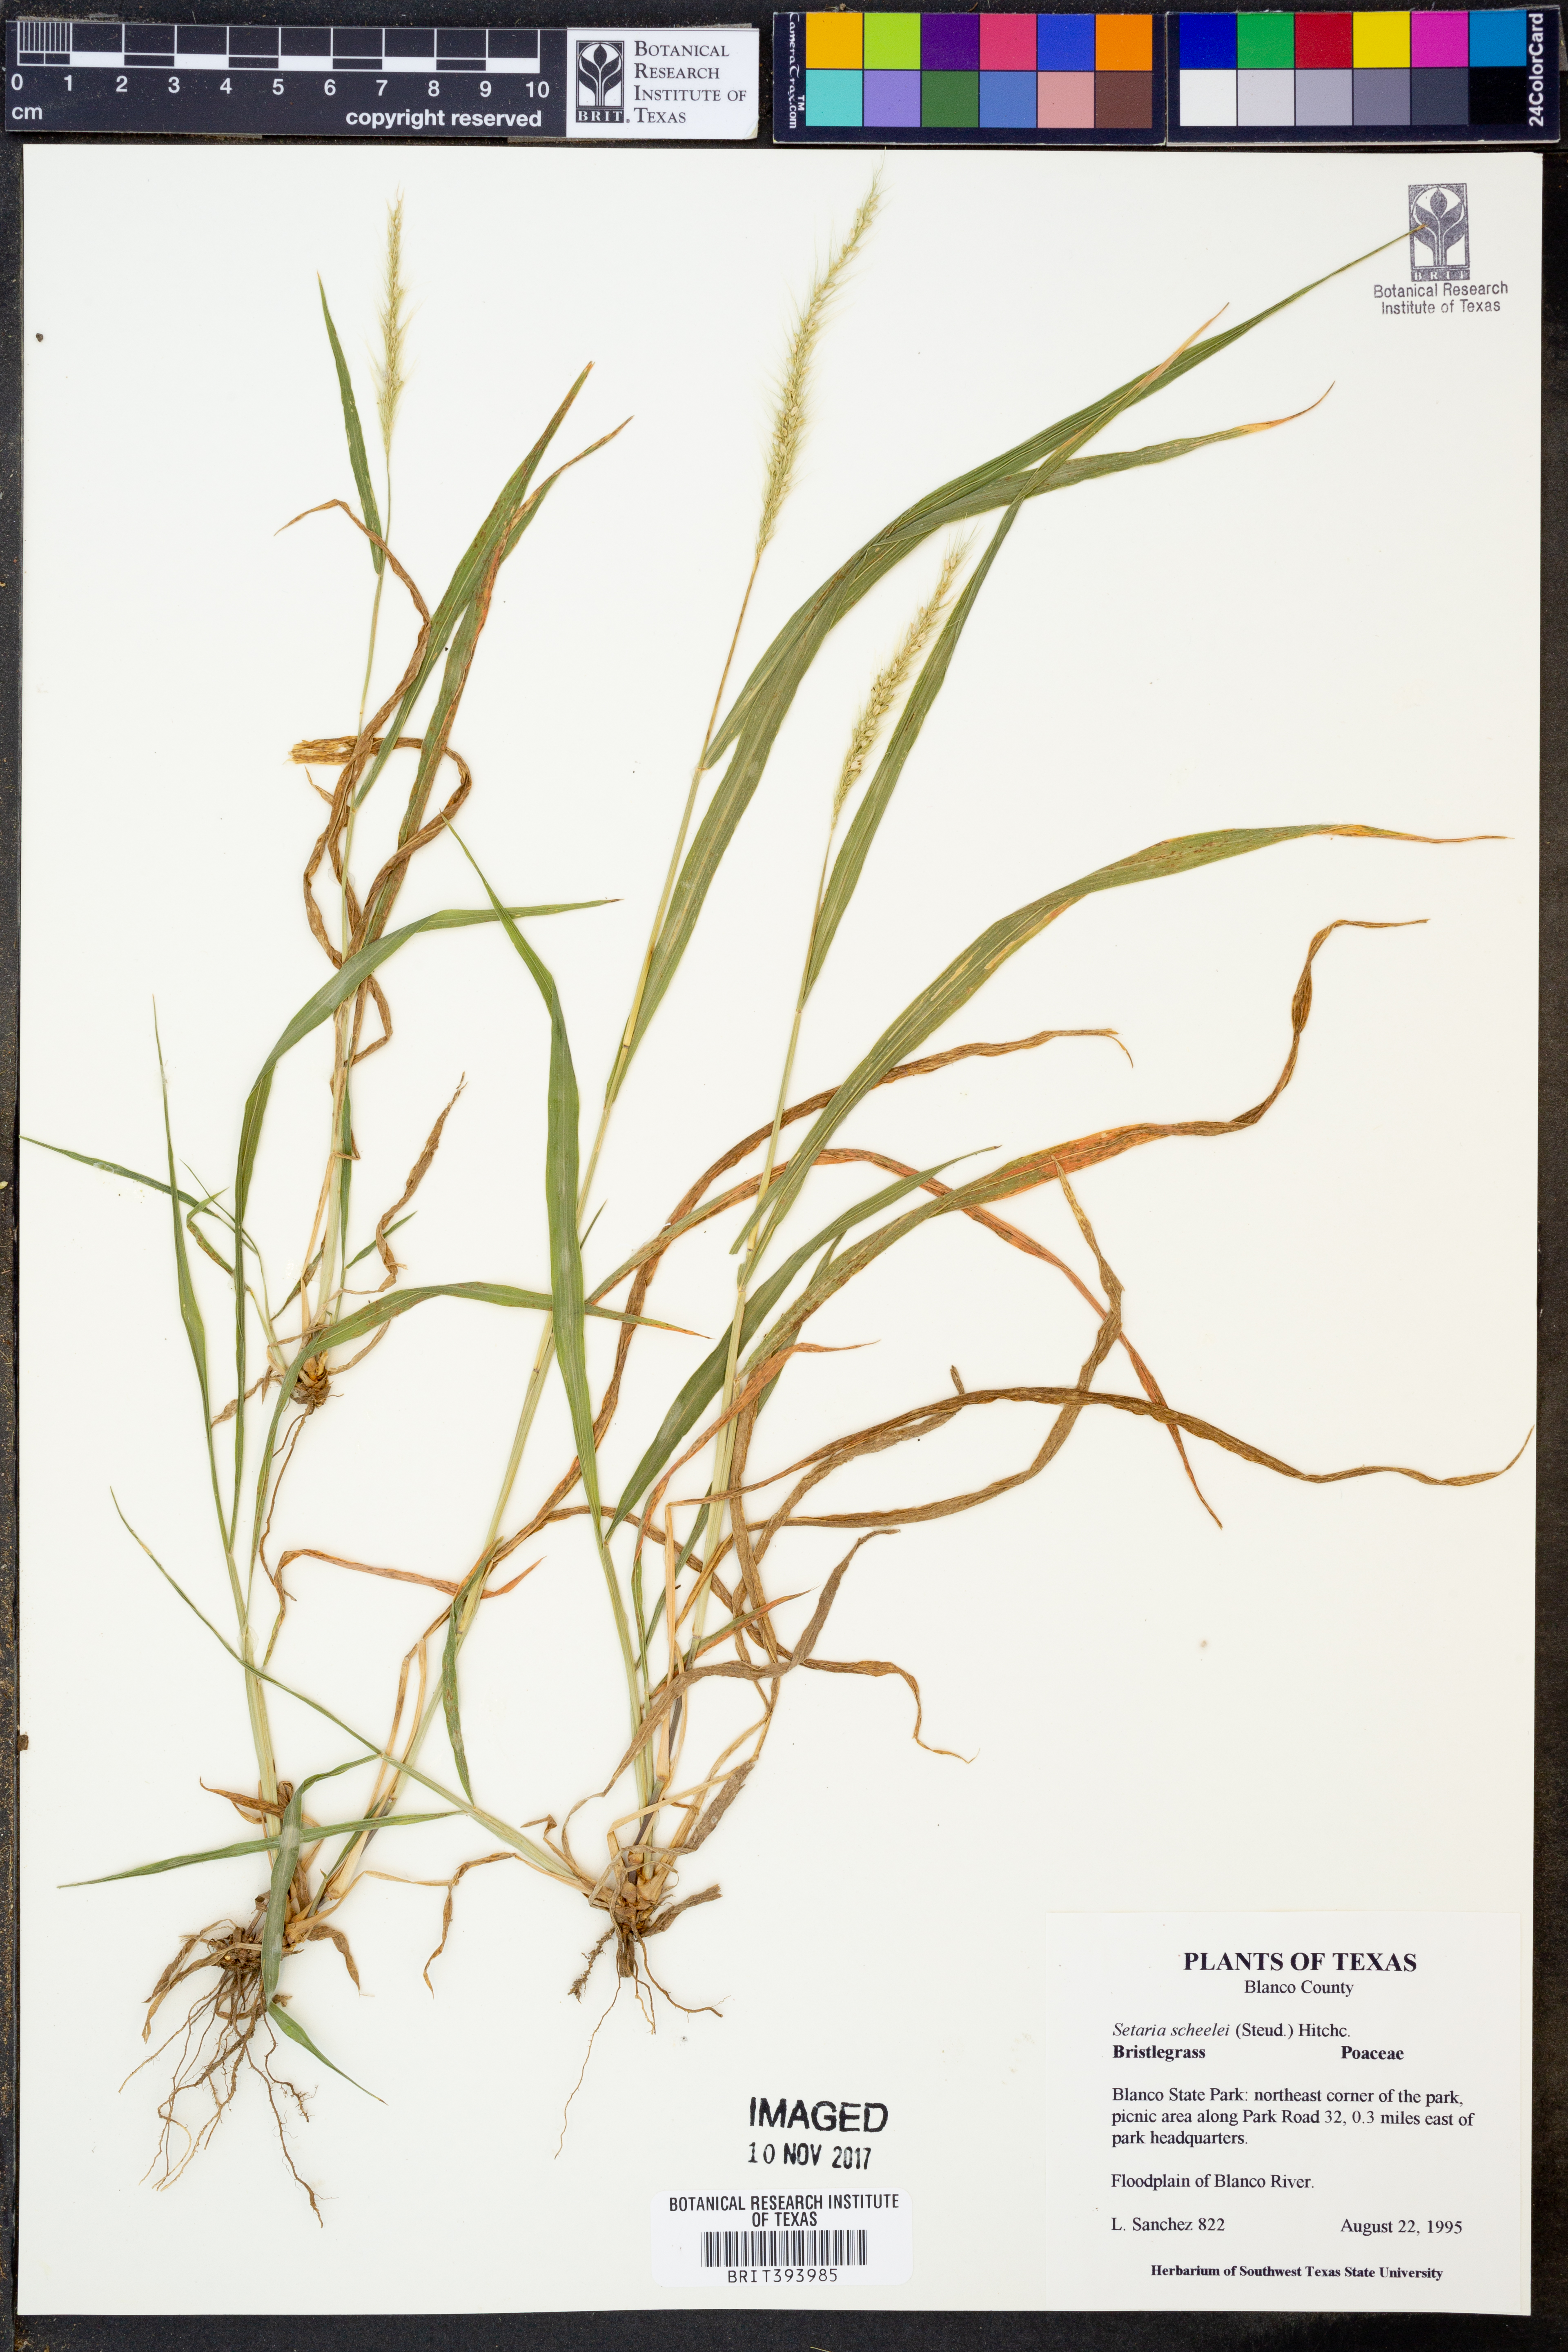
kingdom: Plantae
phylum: Tracheophyta
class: Liliopsida
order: Poales
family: Poaceae
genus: Setaria
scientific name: Setaria scheelei
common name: Southwestern bristle grass
